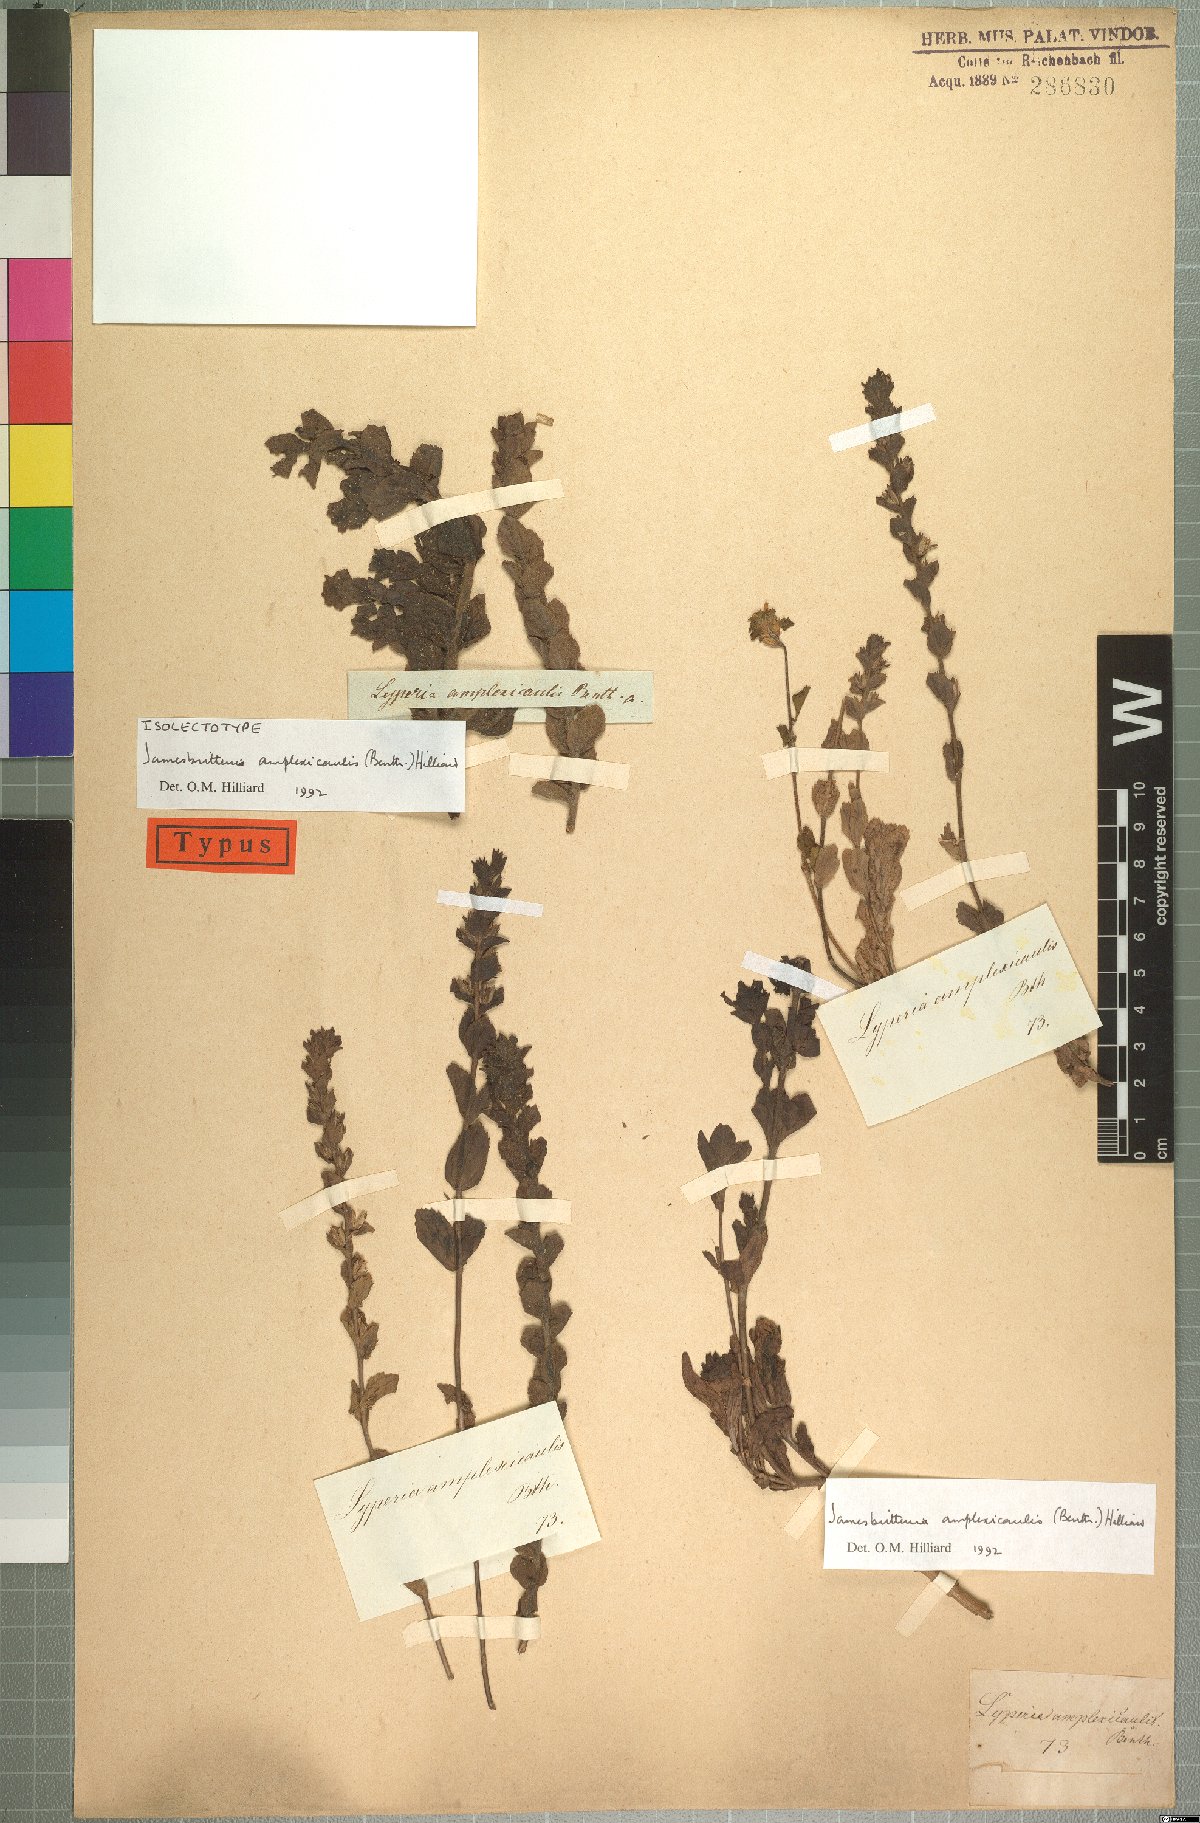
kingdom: Plantae
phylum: Tracheophyta
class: Magnoliopsida
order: Lamiales
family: Scrophulariaceae
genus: Jamesbrittenia
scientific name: Jamesbrittenia amplexicaulis
